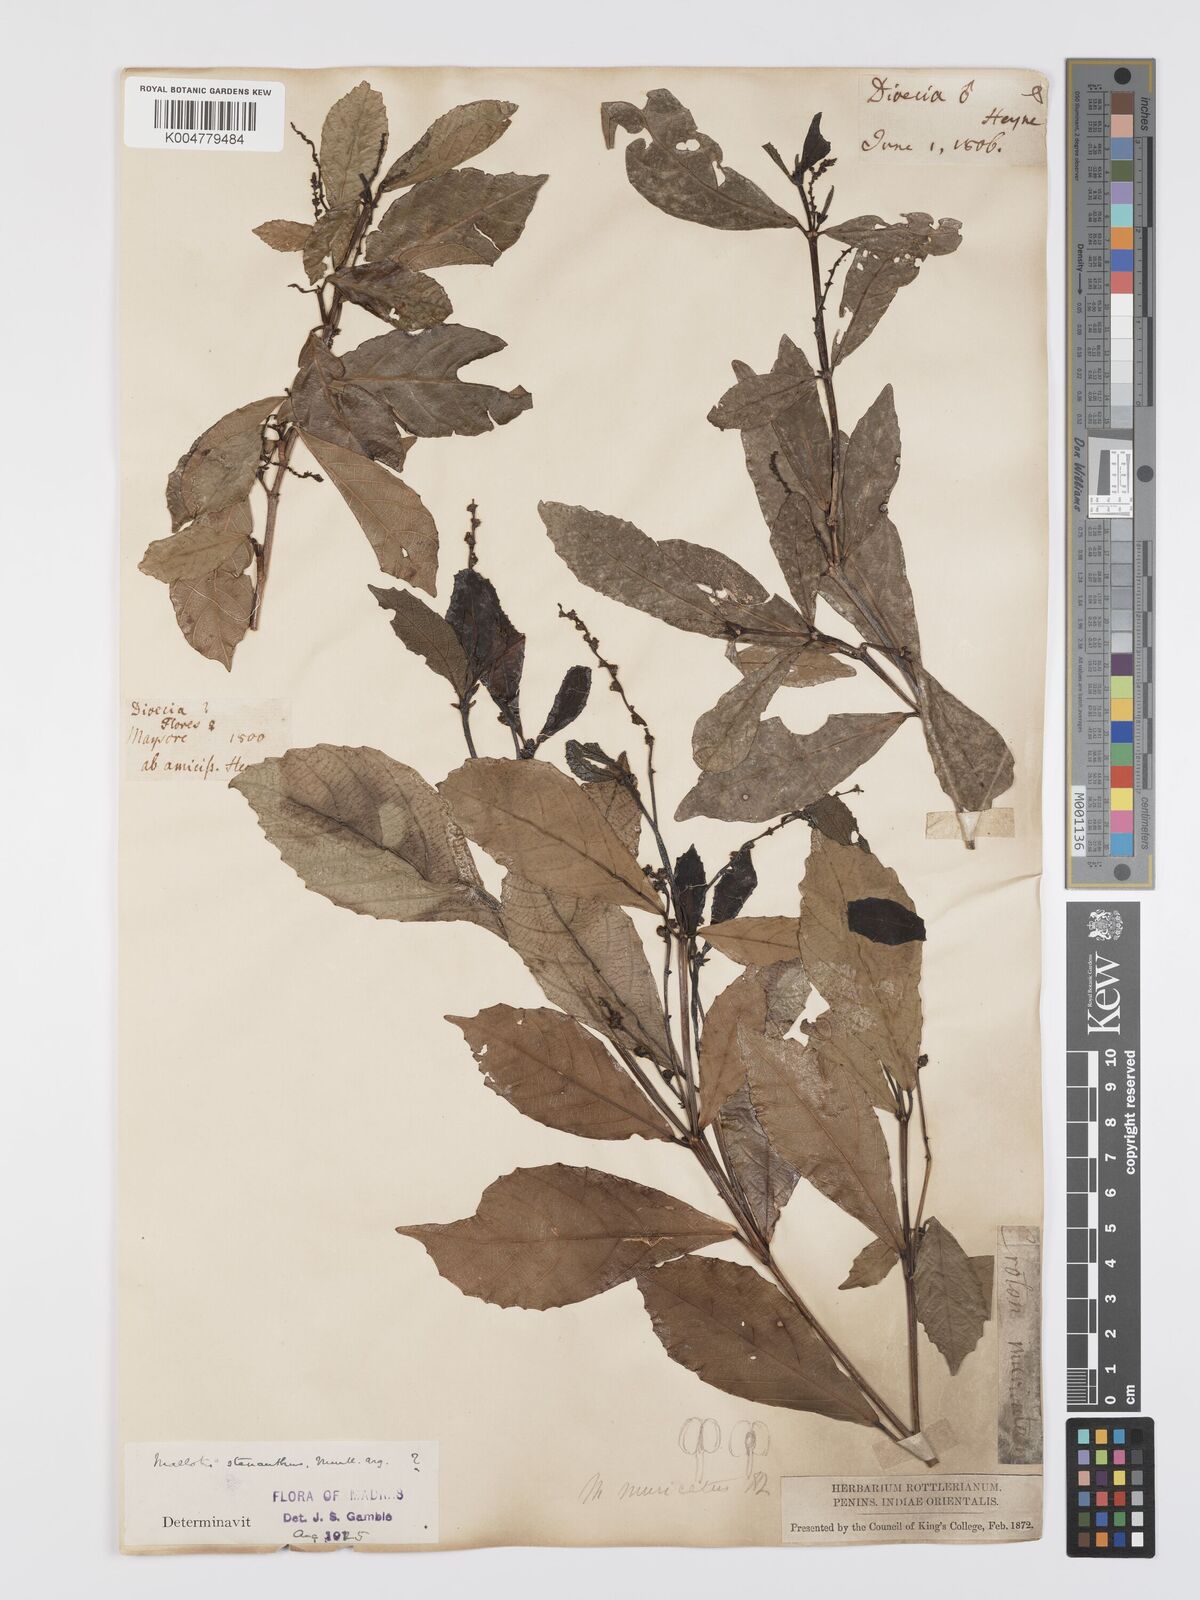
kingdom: Plantae
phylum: Tracheophyta
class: Magnoliopsida
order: Malpighiales
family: Euphorbiaceae
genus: Mallotus
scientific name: Mallotus resinosus
